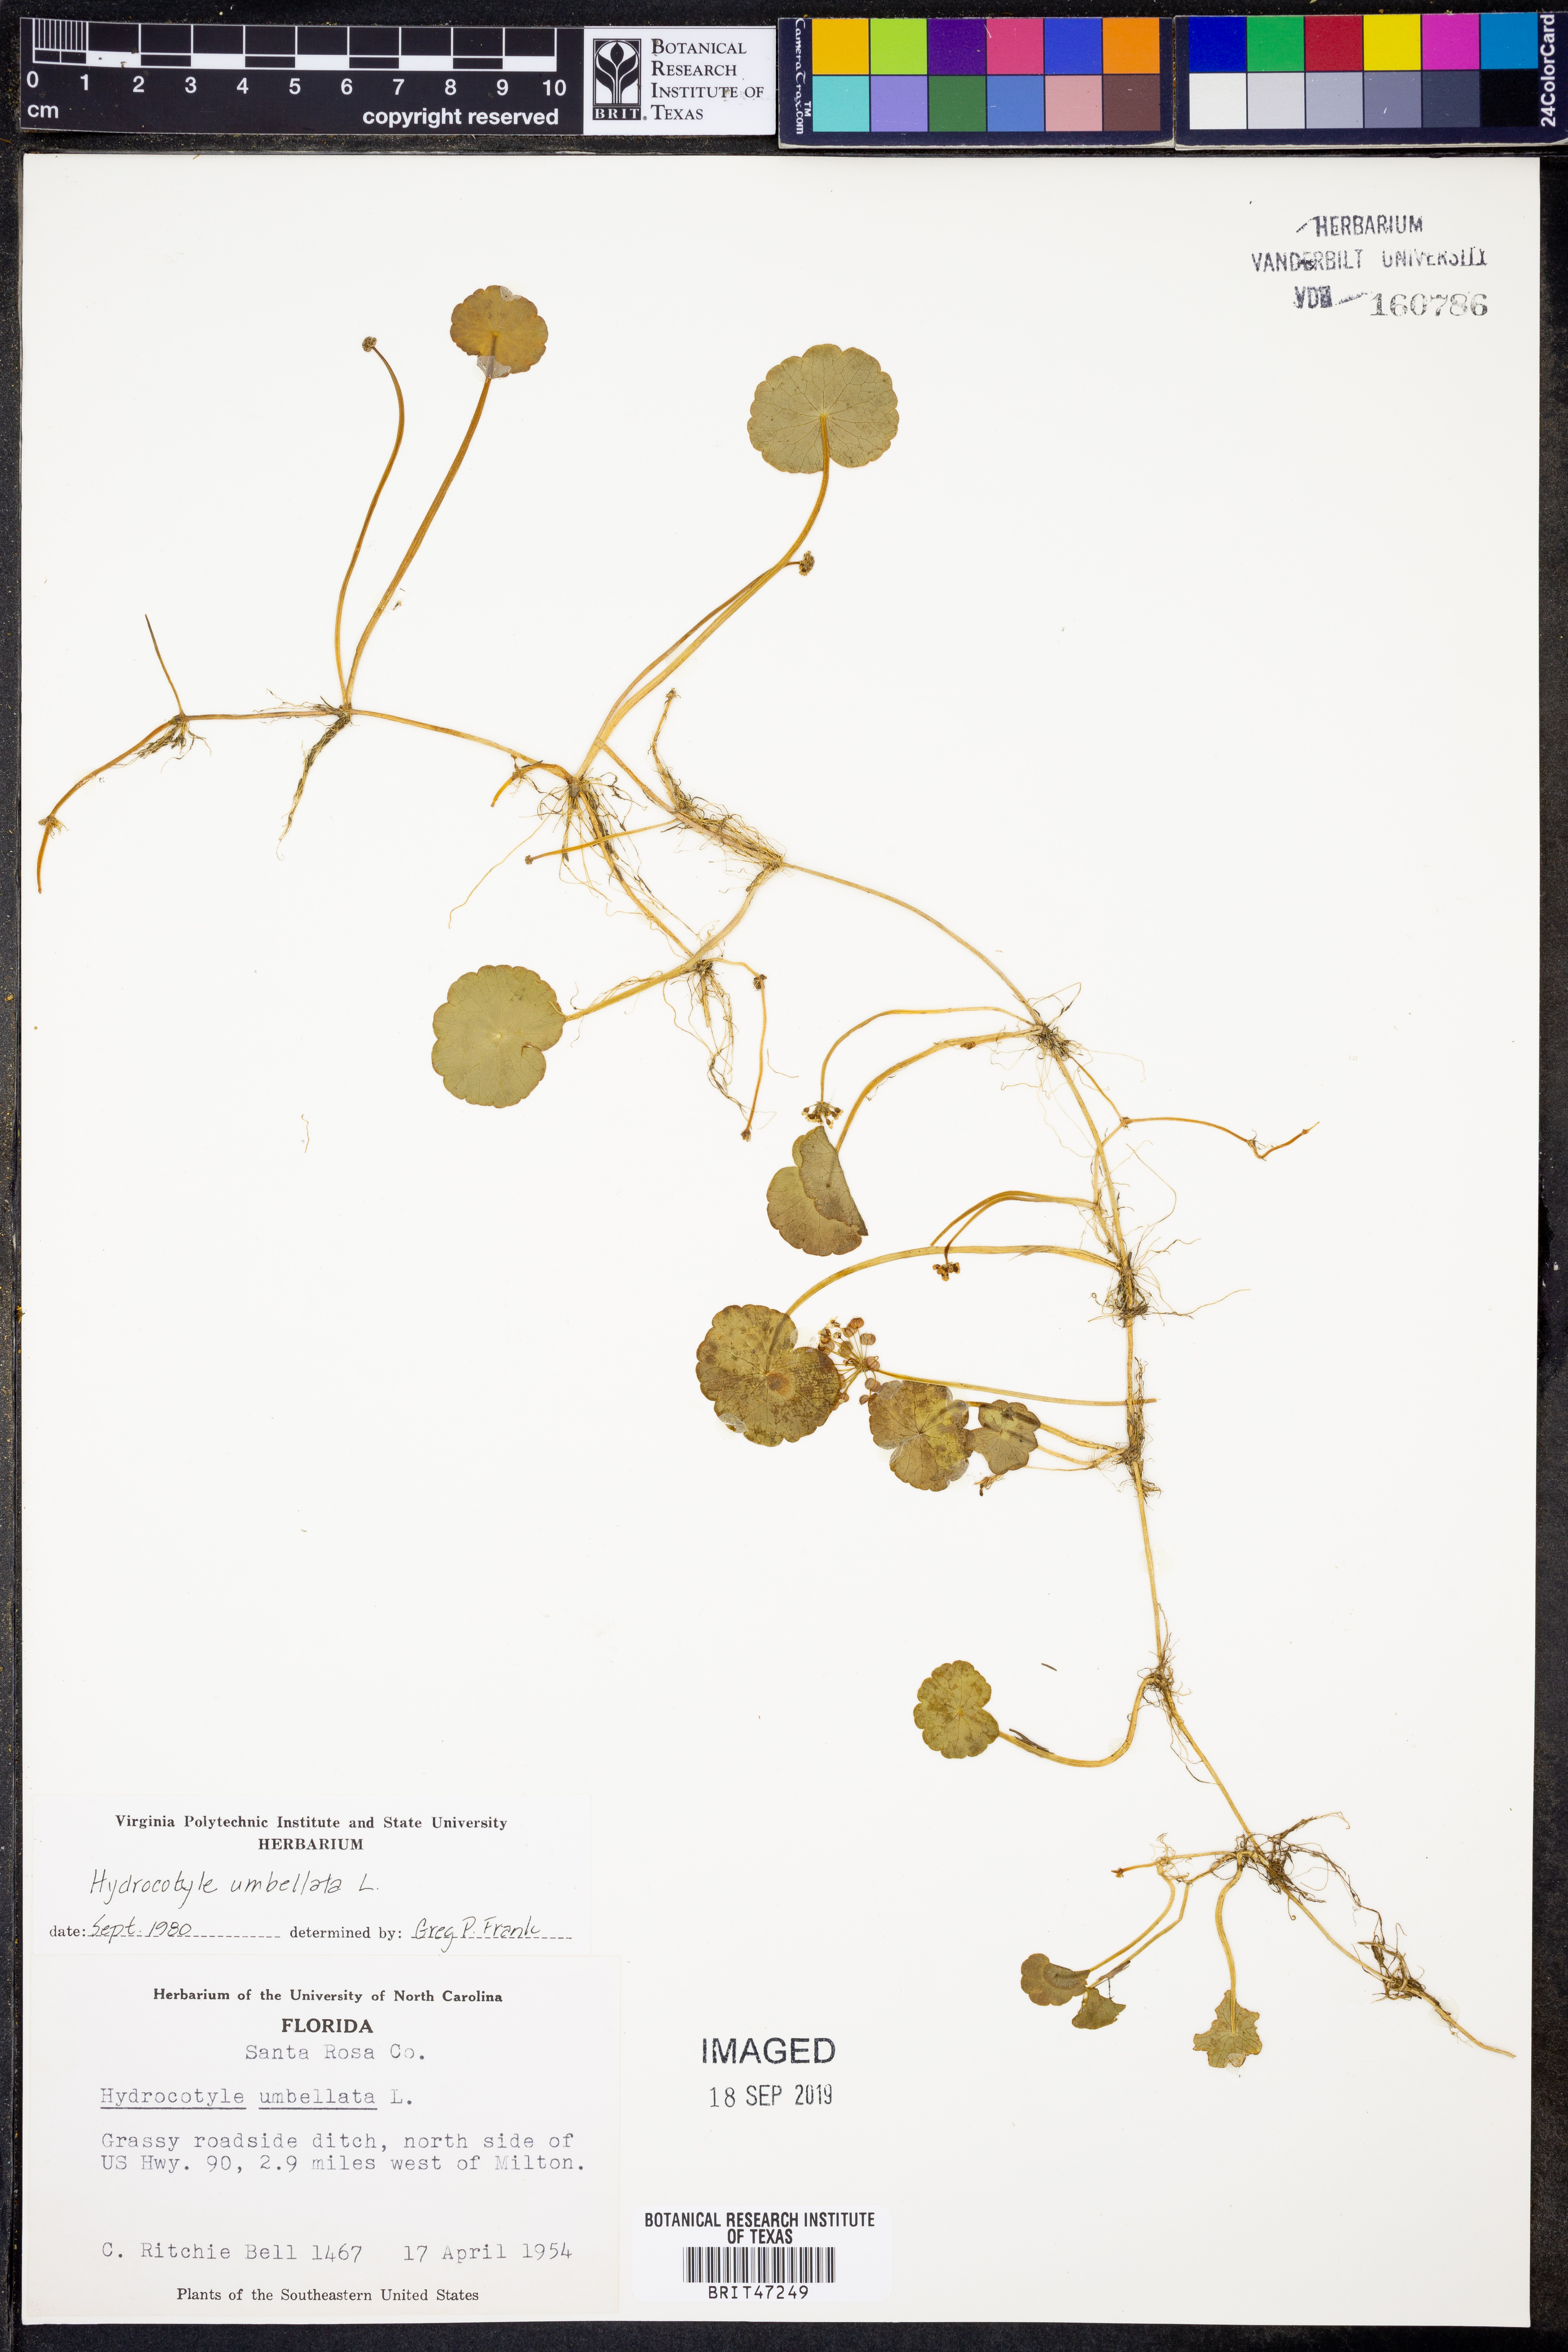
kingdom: Plantae
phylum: Tracheophyta
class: Magnoliopsida
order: Apiales
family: Araliaceae
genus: Hydrocotyle
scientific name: Hydrocotyle umbellata
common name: Water pennywort
